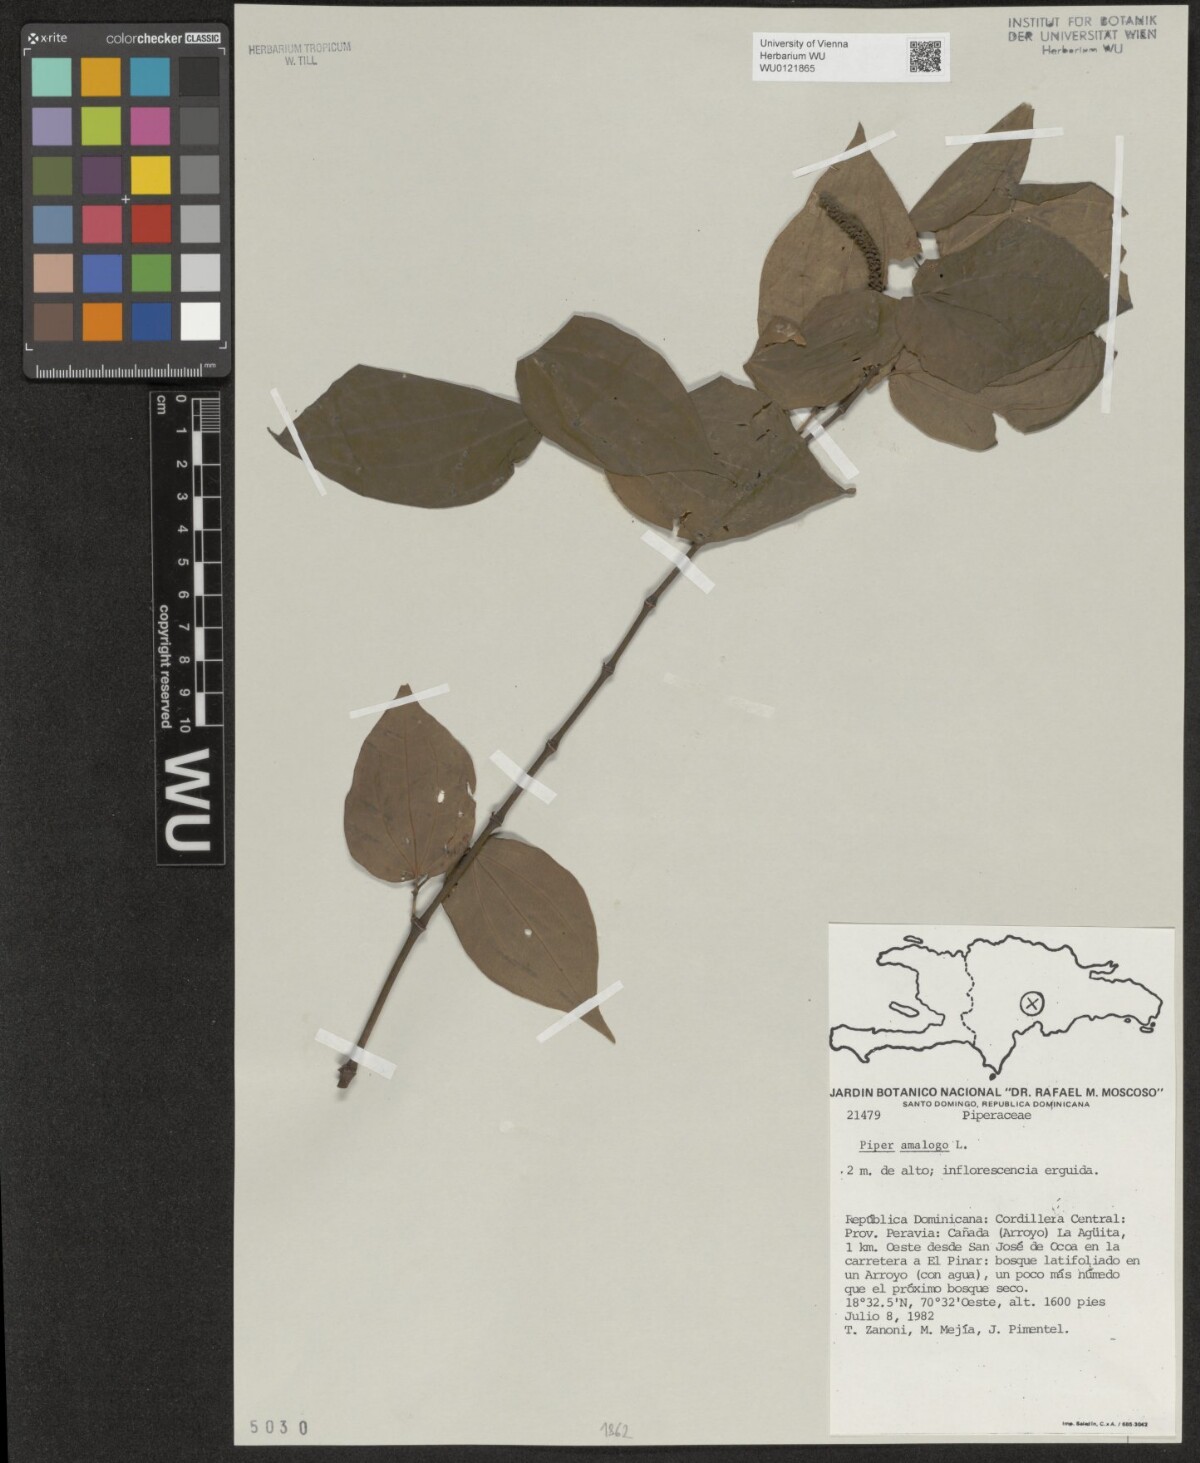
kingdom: Plantae
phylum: Tracheophyta
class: Magnoliopsida
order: Piperales
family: Piperaceae
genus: Piper
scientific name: Piper amalago
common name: Pepper-elder
